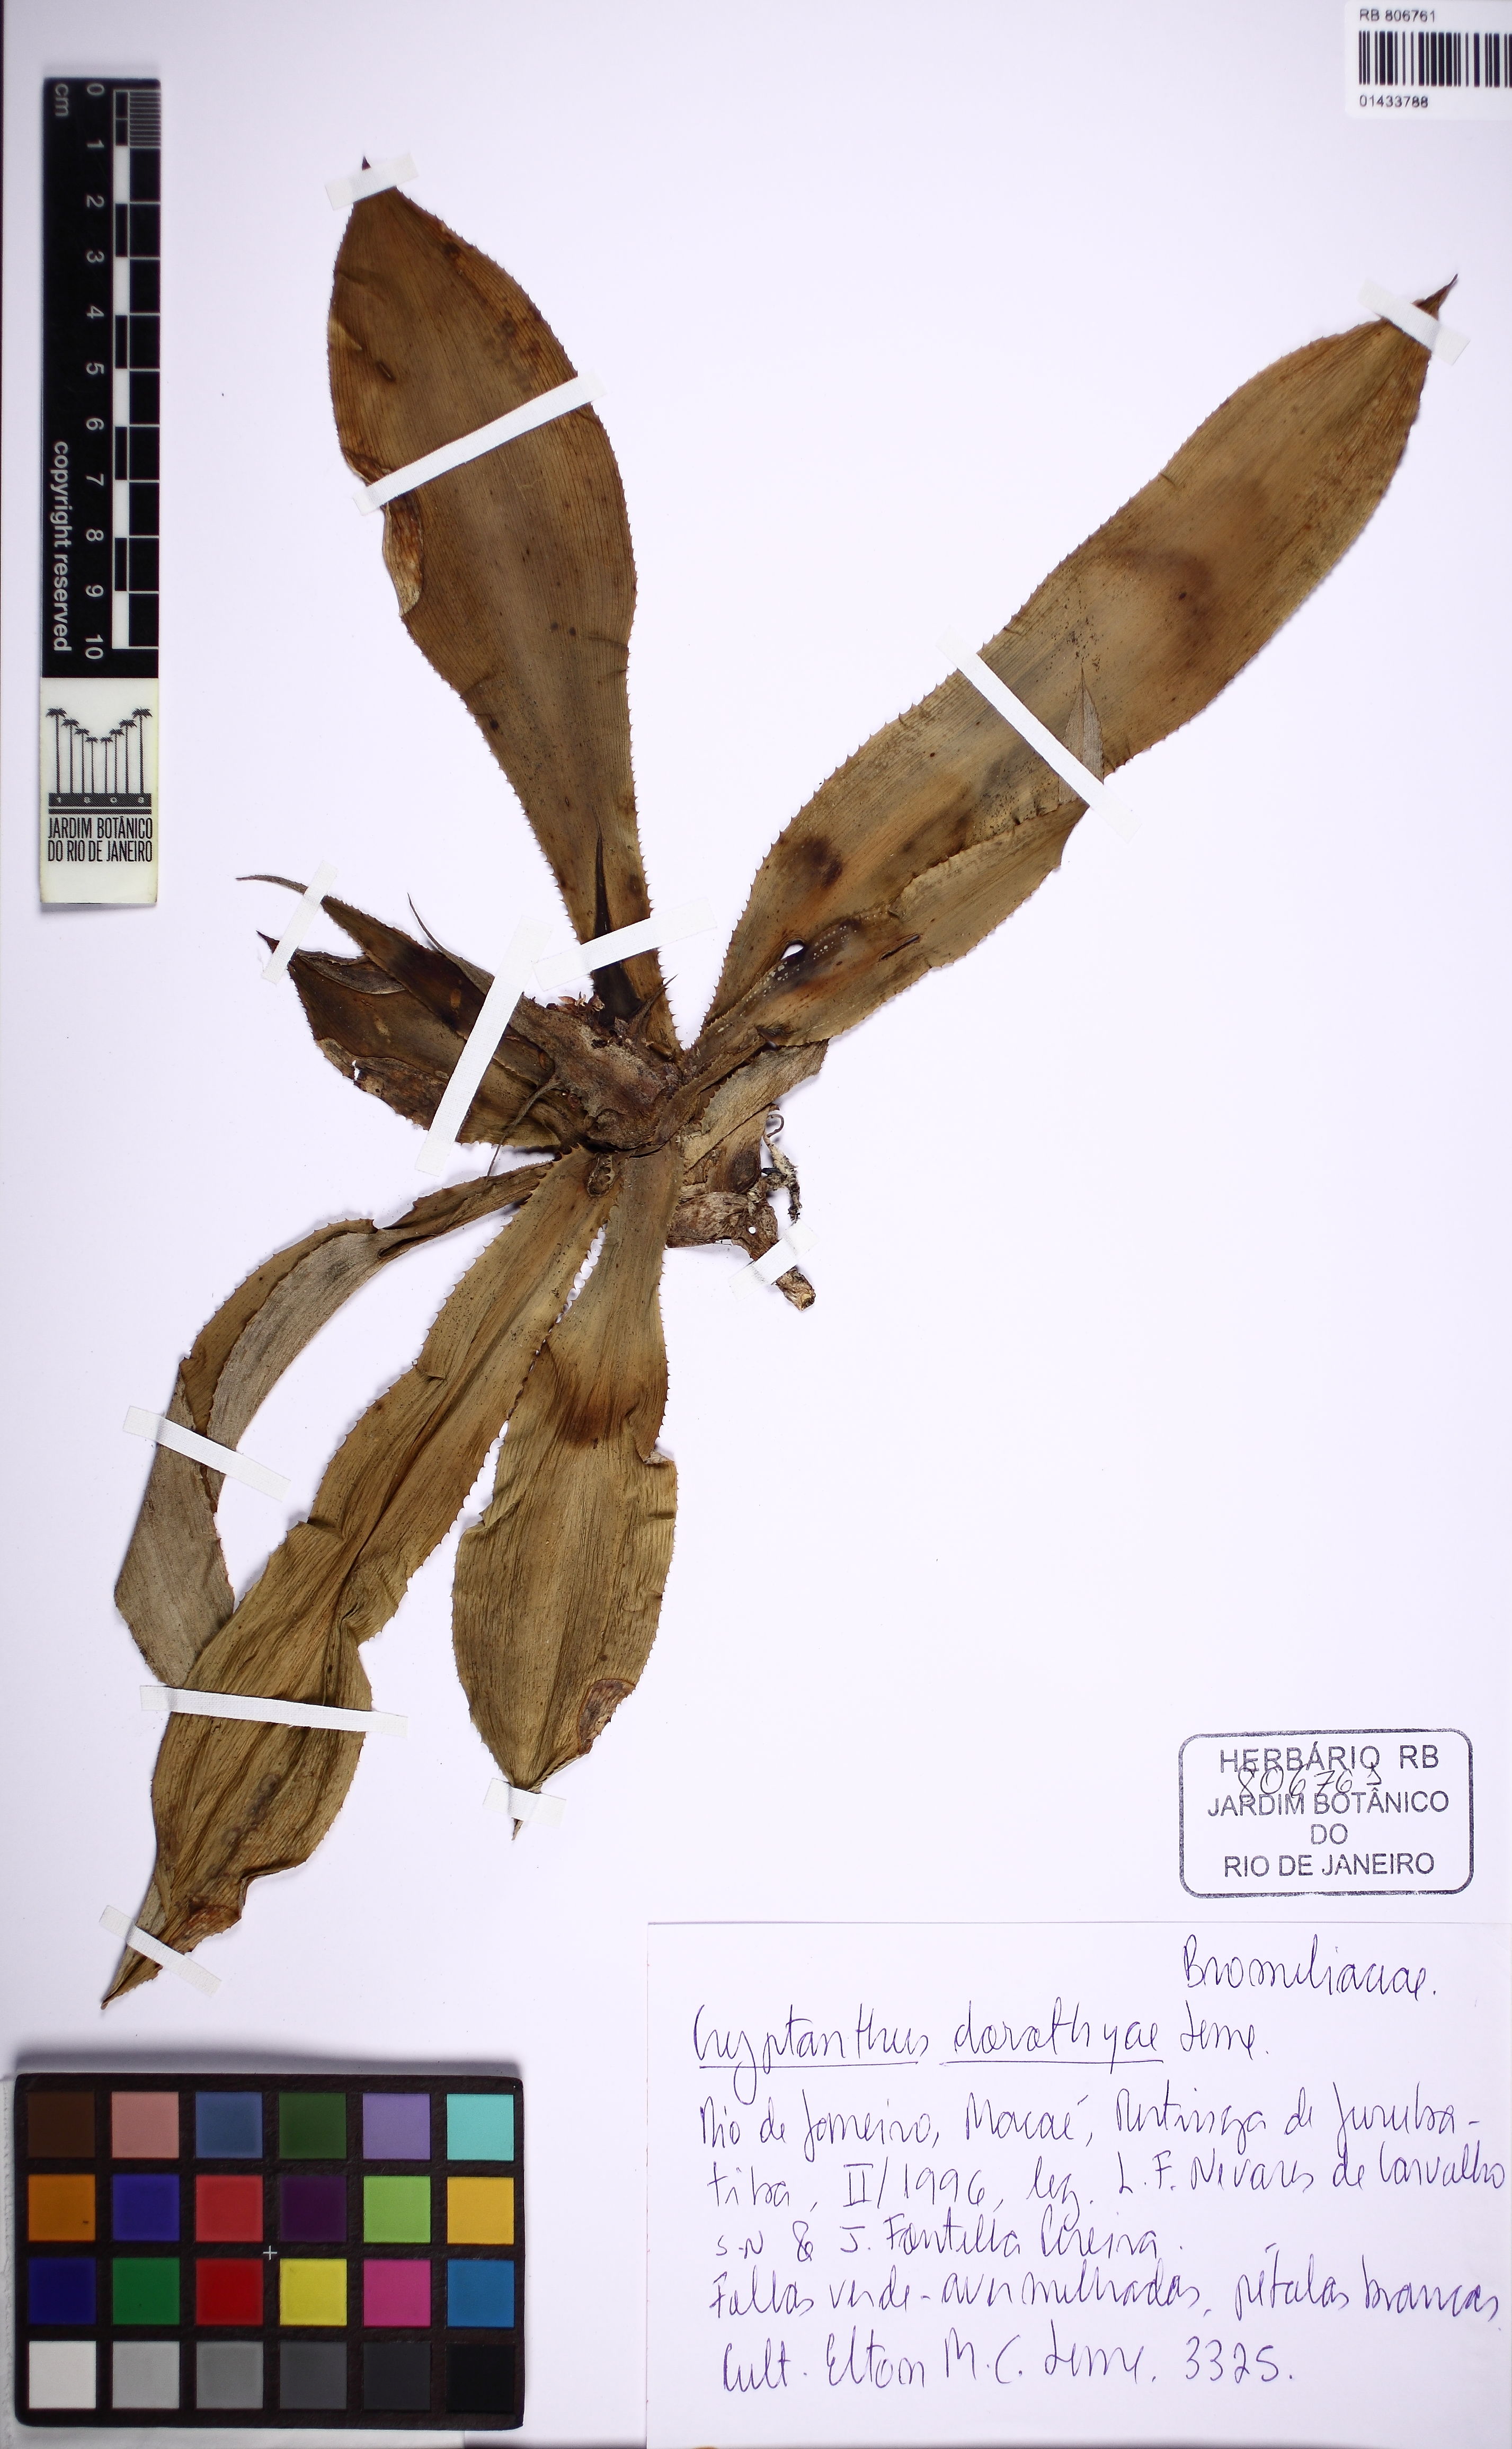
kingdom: Plantae
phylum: Tracheophyta
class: Liliopsida
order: Poales
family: Bromeliaceae
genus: Cryptanthus
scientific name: Cryptanthus dorothyae
